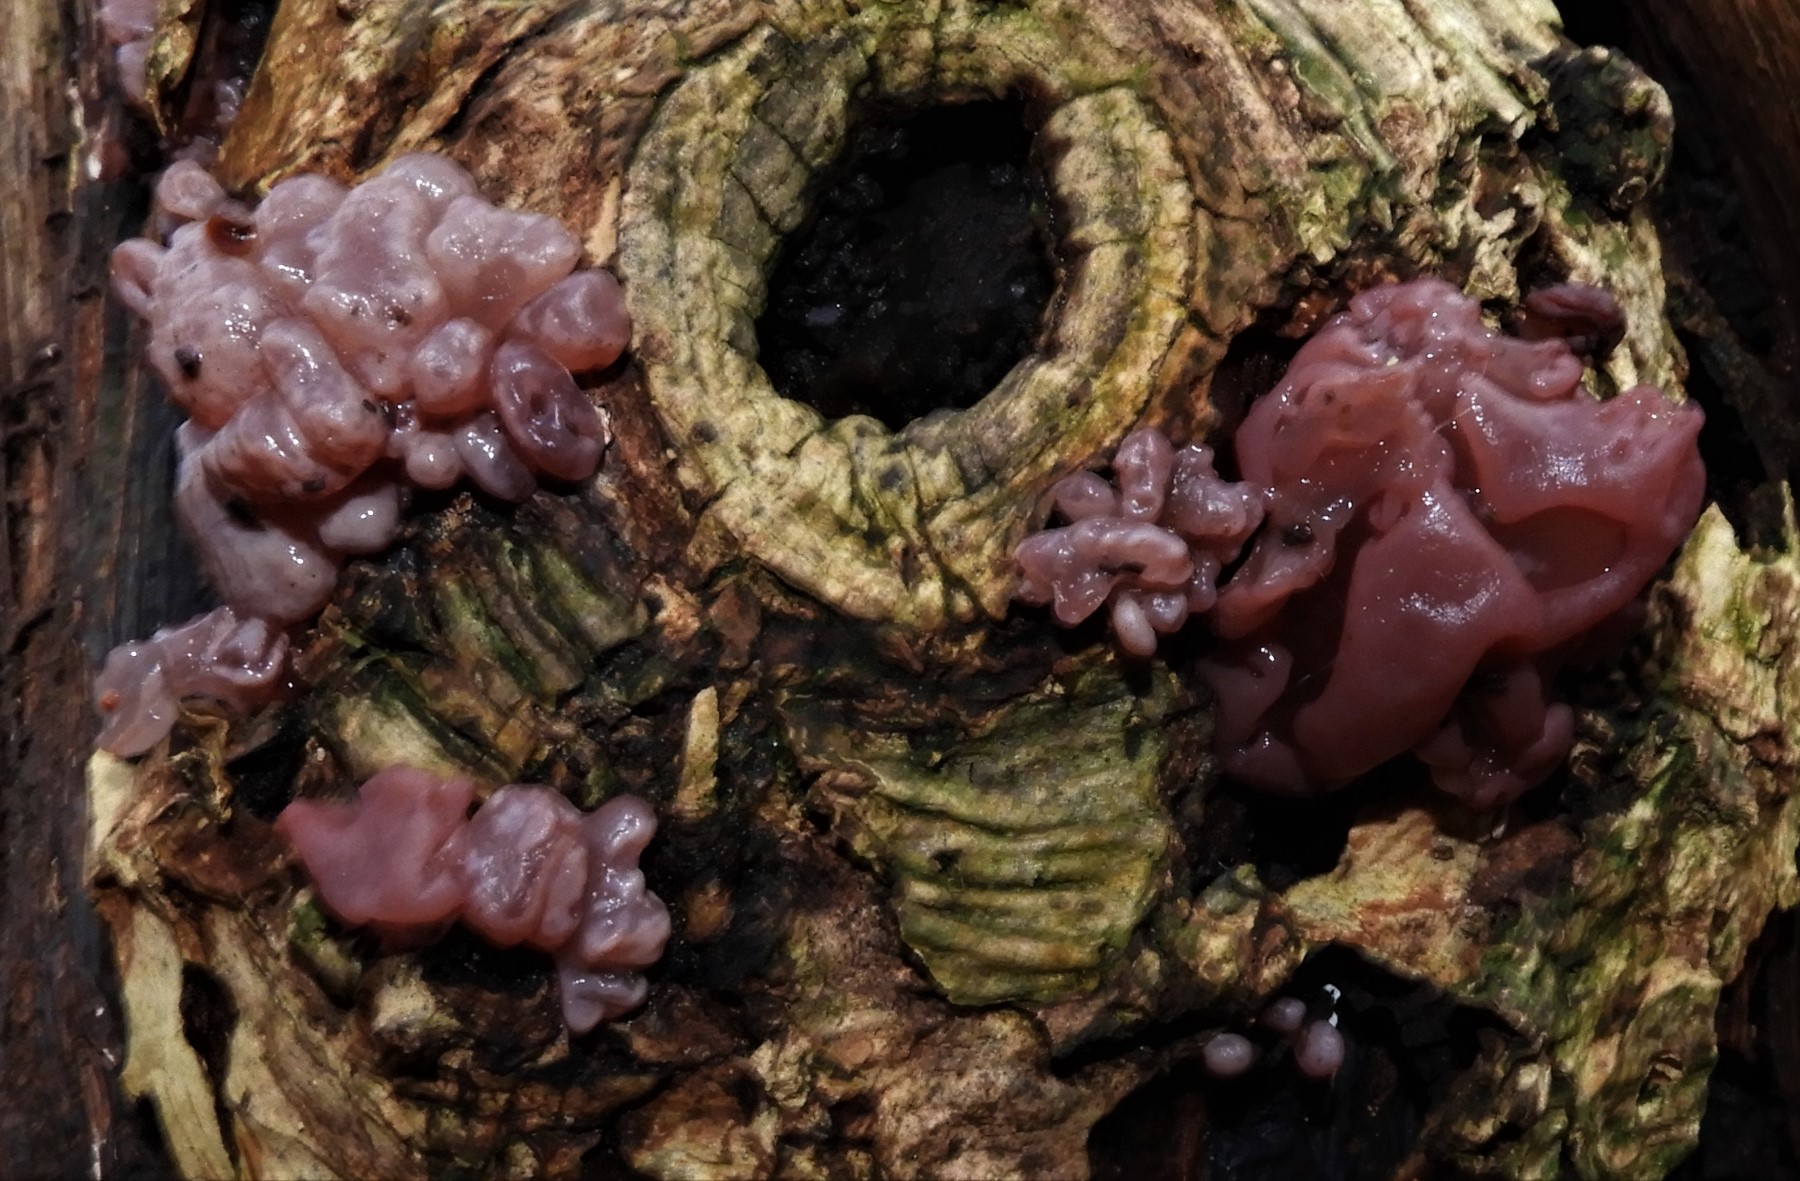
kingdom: Fungi
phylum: Ascomycota
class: Leotiomycetes
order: Helotiales
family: Gelatinodiscaceae
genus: Ascocoryne
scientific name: Ascocoryne sarcoides
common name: rødlilla sejskive
